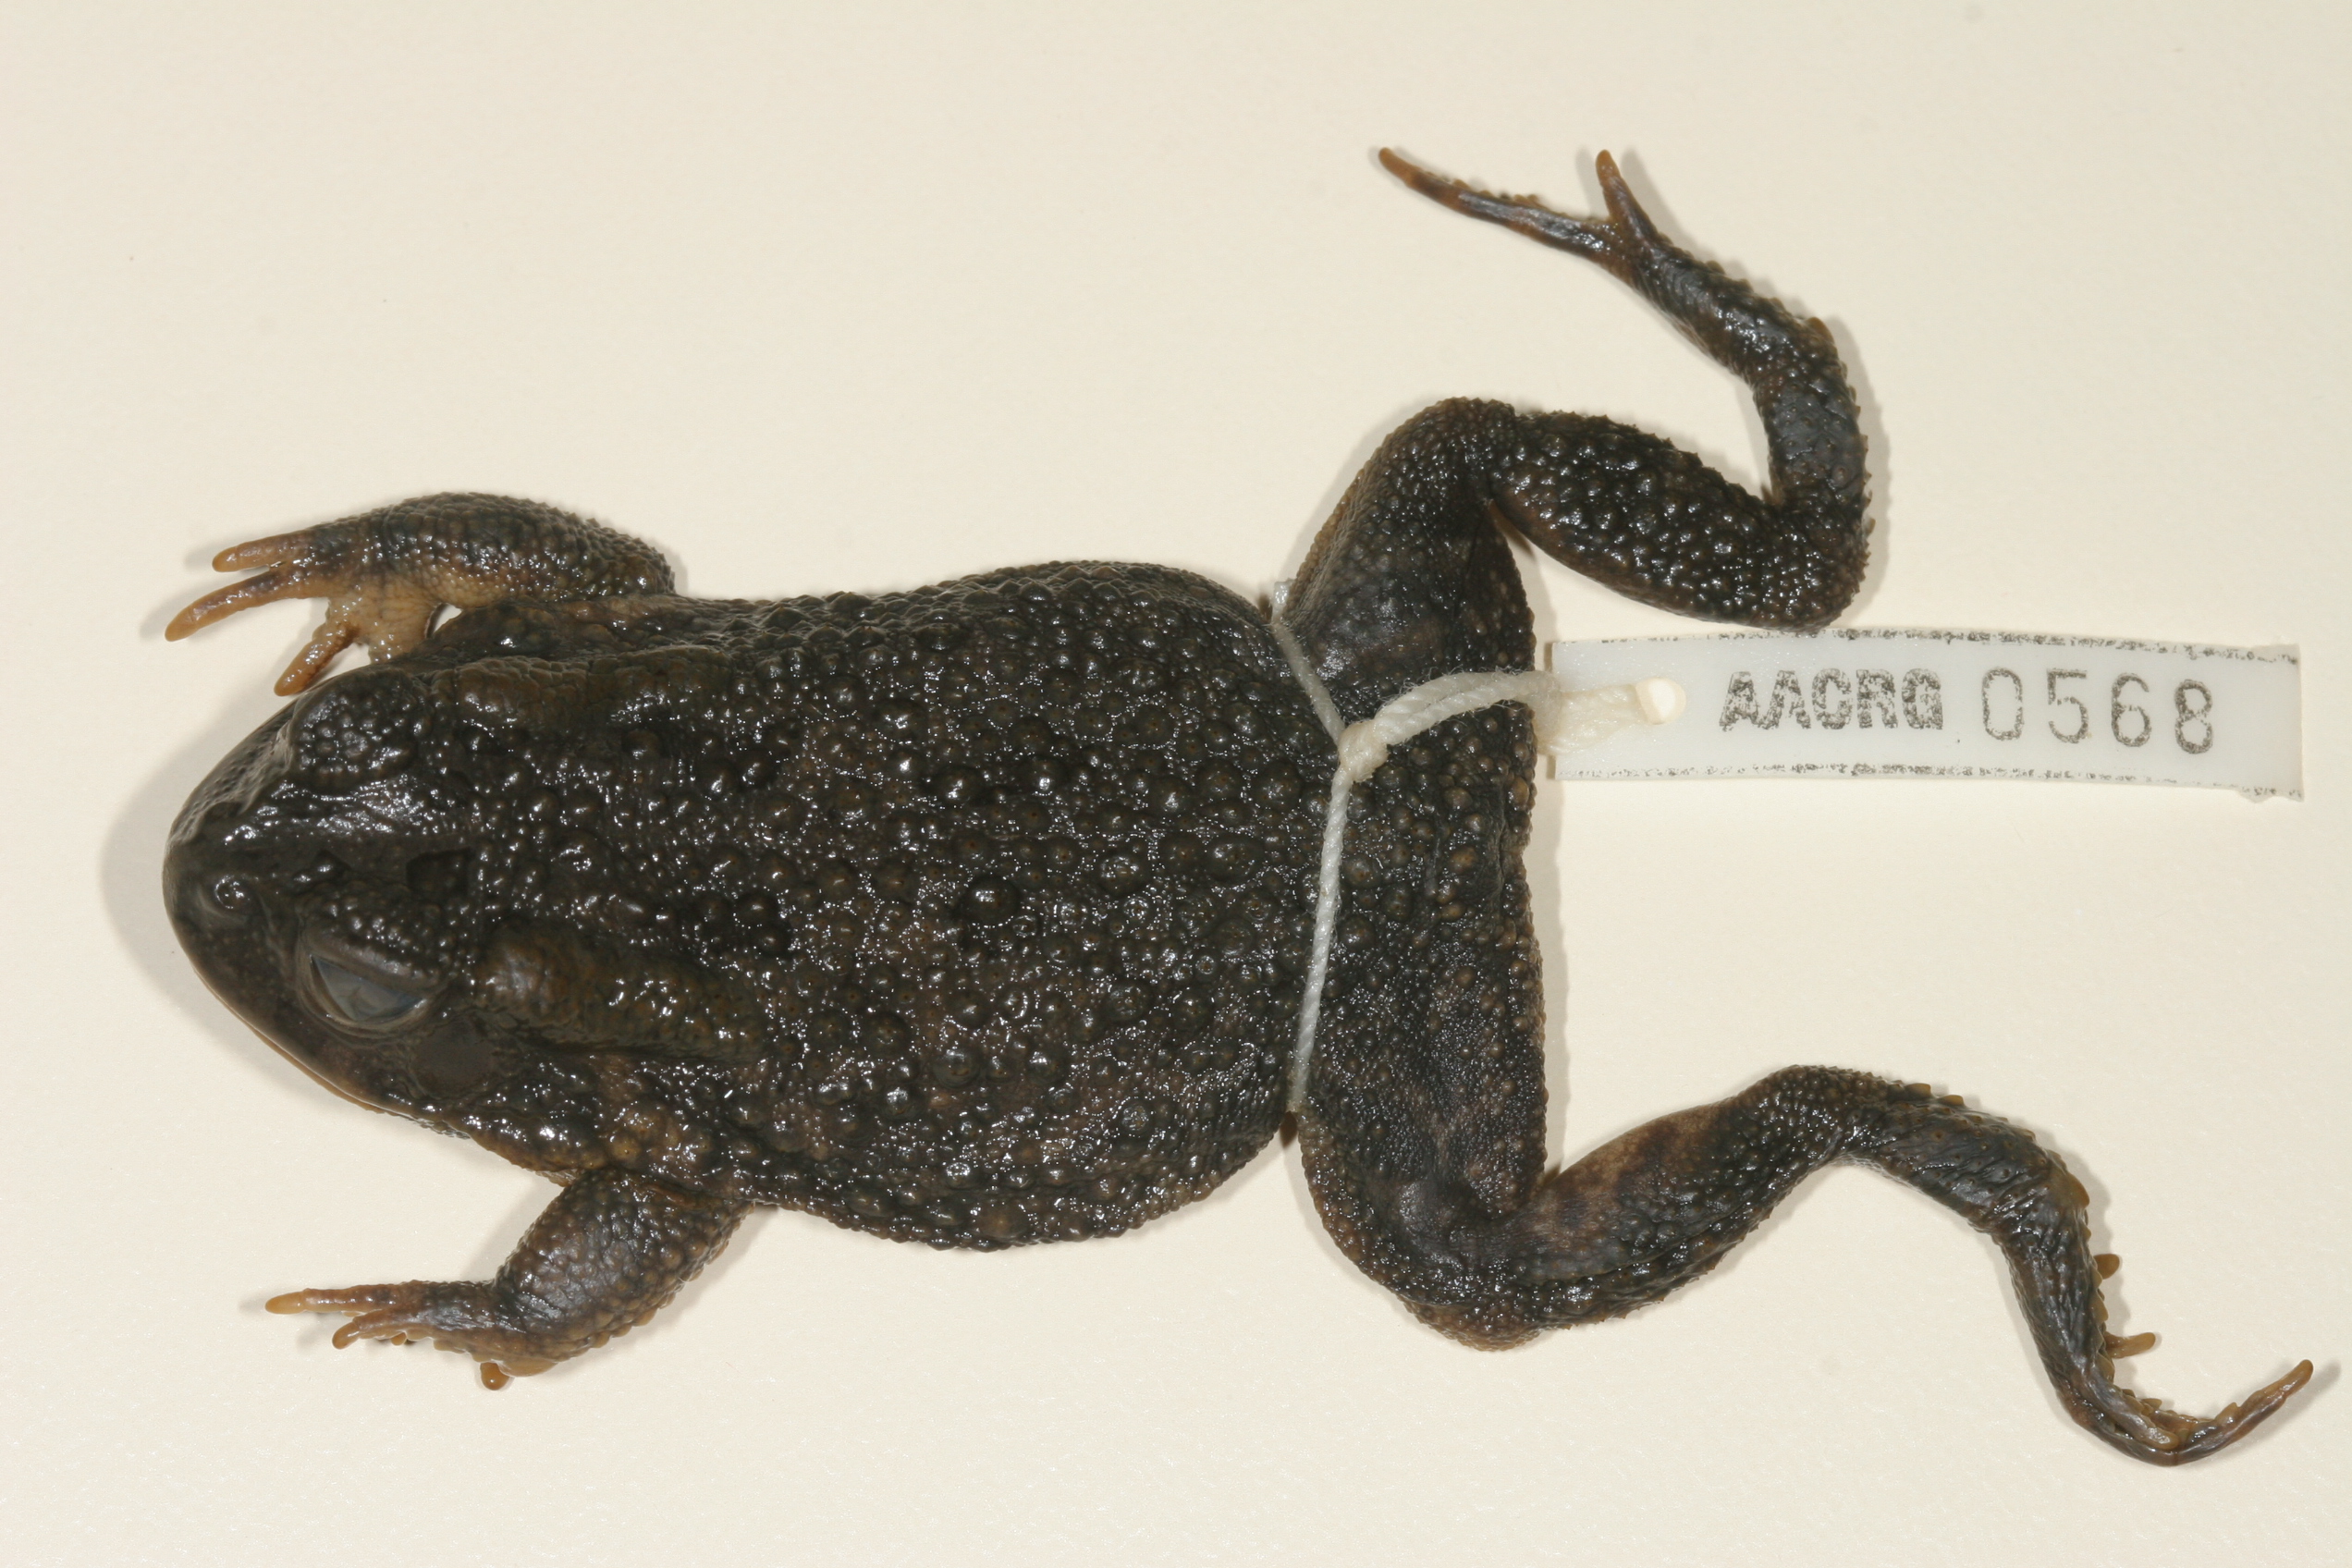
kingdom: Animalia
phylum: Chordata
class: Amphibia
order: Anura
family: Bufonidae
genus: Sclerophrys
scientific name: Sclerophrys gutturalis
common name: African common toad
